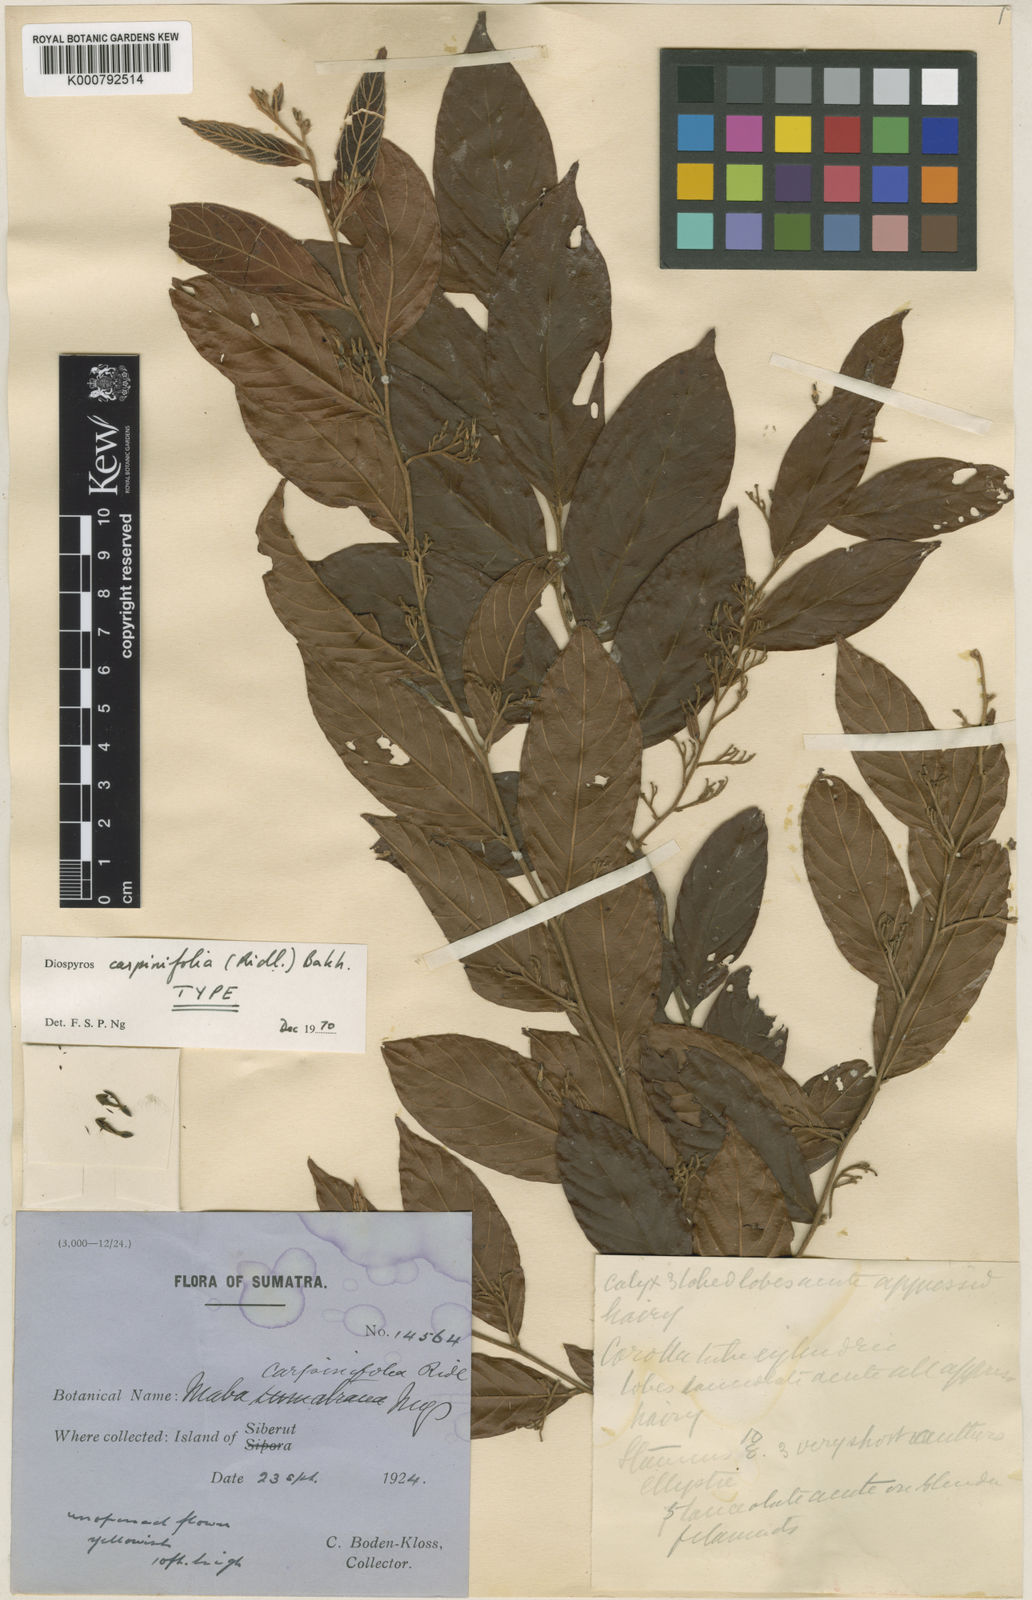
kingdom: Plantae
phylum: Tracheophyta
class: Magnoliopsida
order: Ericales
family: Ebenaceae
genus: Diospyros
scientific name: Diospyros andamanica
